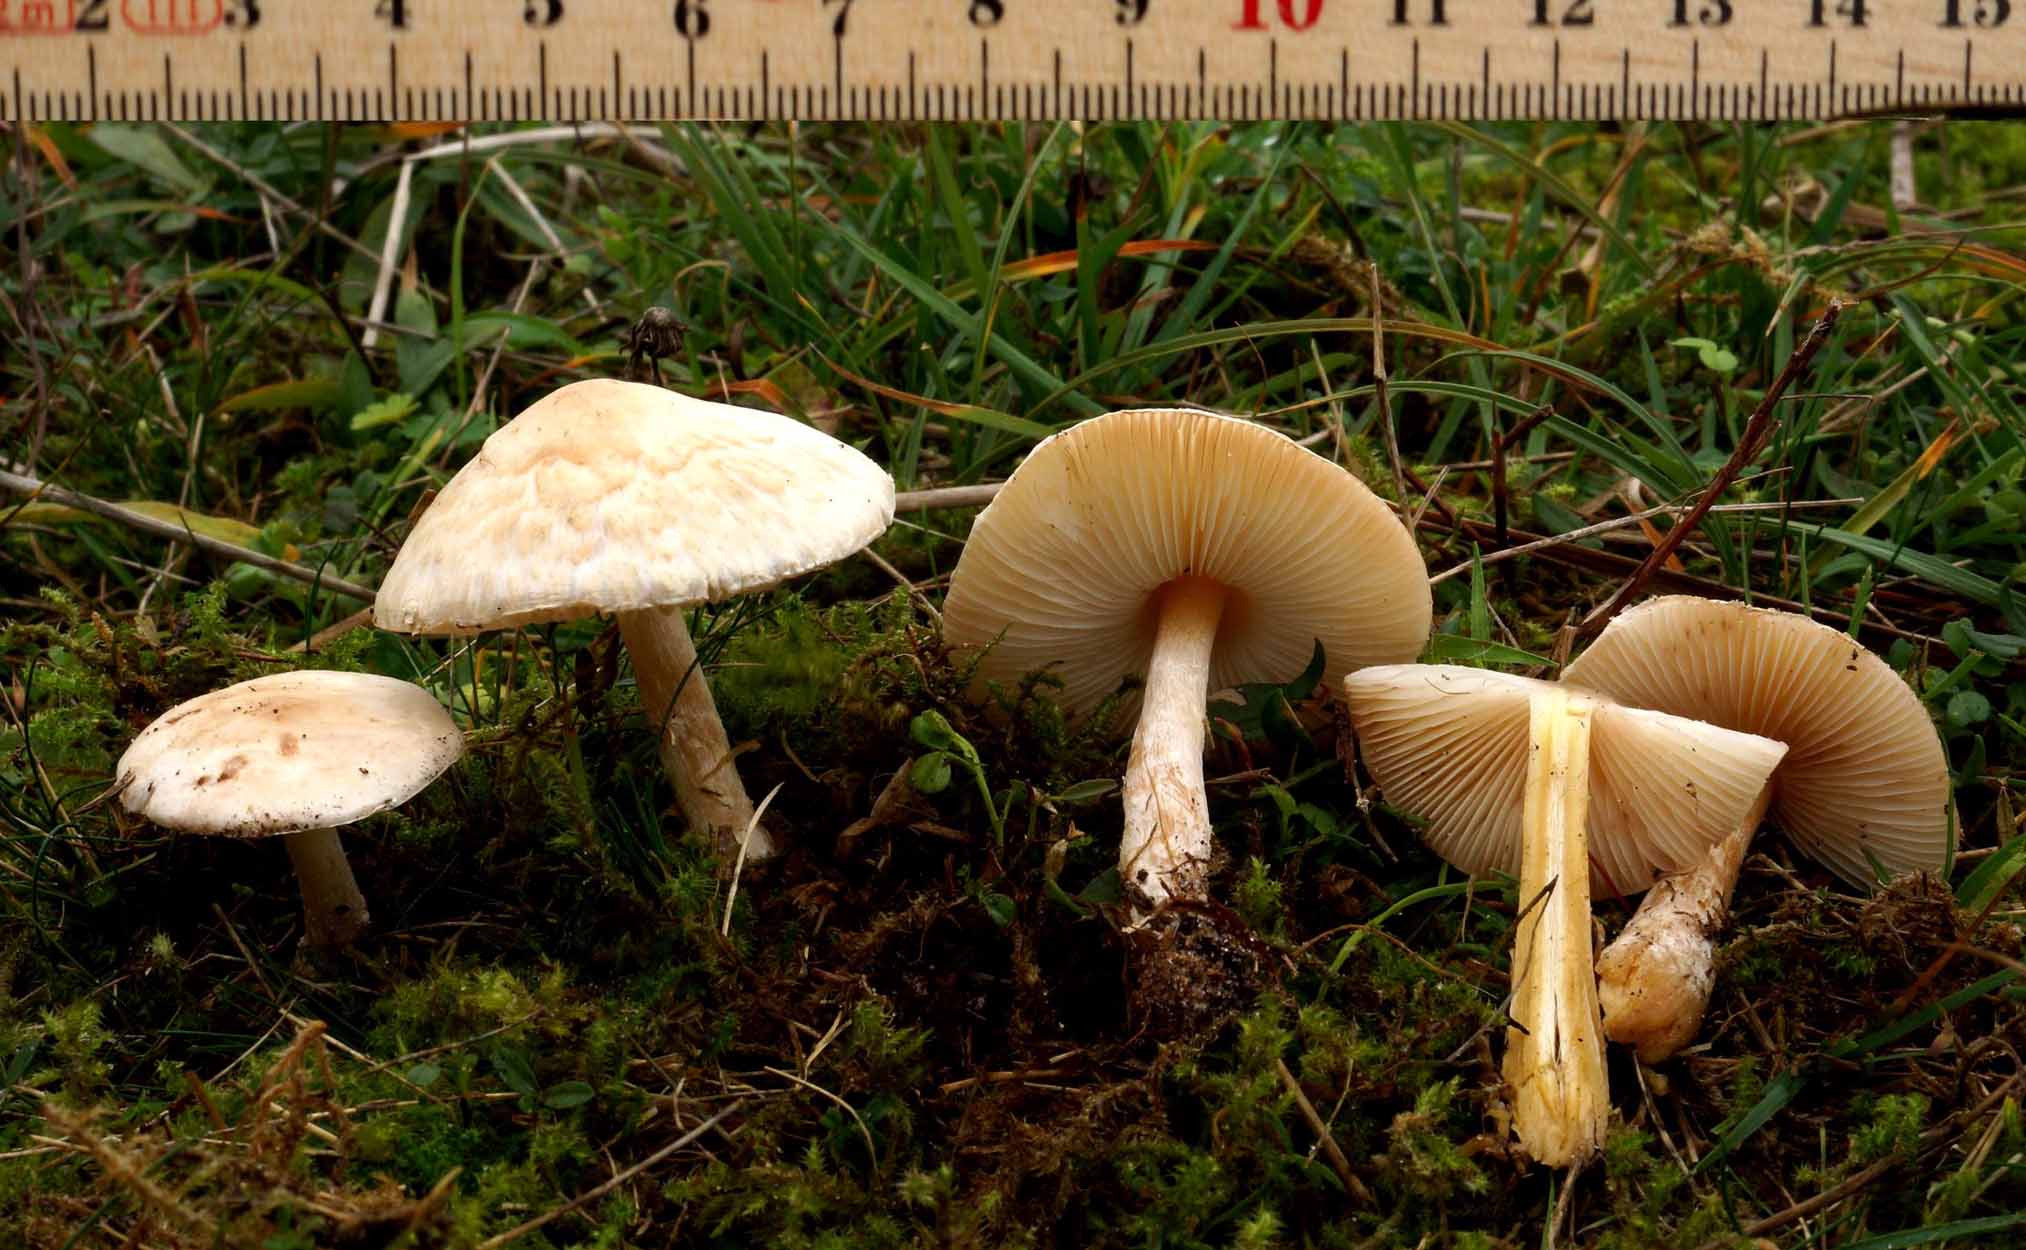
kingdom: Fungi
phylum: Basidiomycota
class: Agaricomycetes
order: Agaricales
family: Agaricaceae
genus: Lepiota
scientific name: Lepiota erminea
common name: hvid parasolhat
